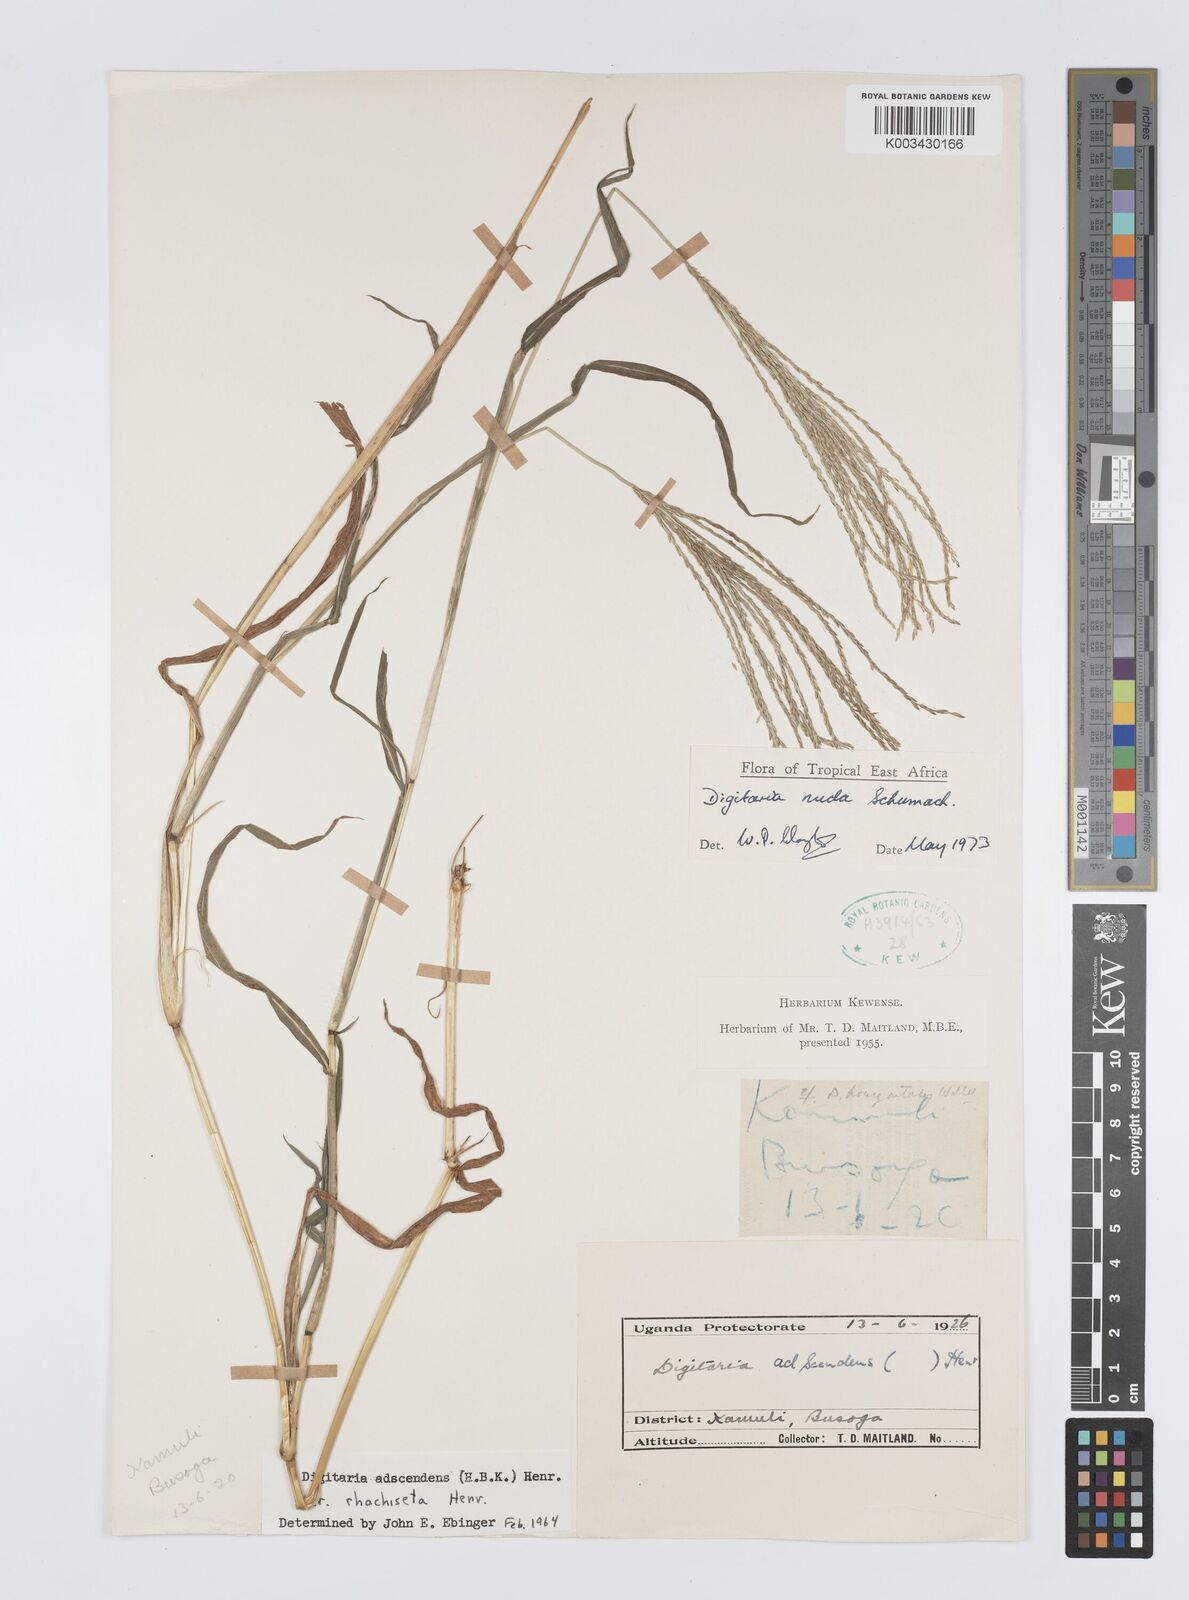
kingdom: Plantae
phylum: Tracheophyta
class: Liliopsida
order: Poales
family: Poaceae
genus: Digitaria
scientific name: Digitaria nuda
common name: Naked crabgrass
